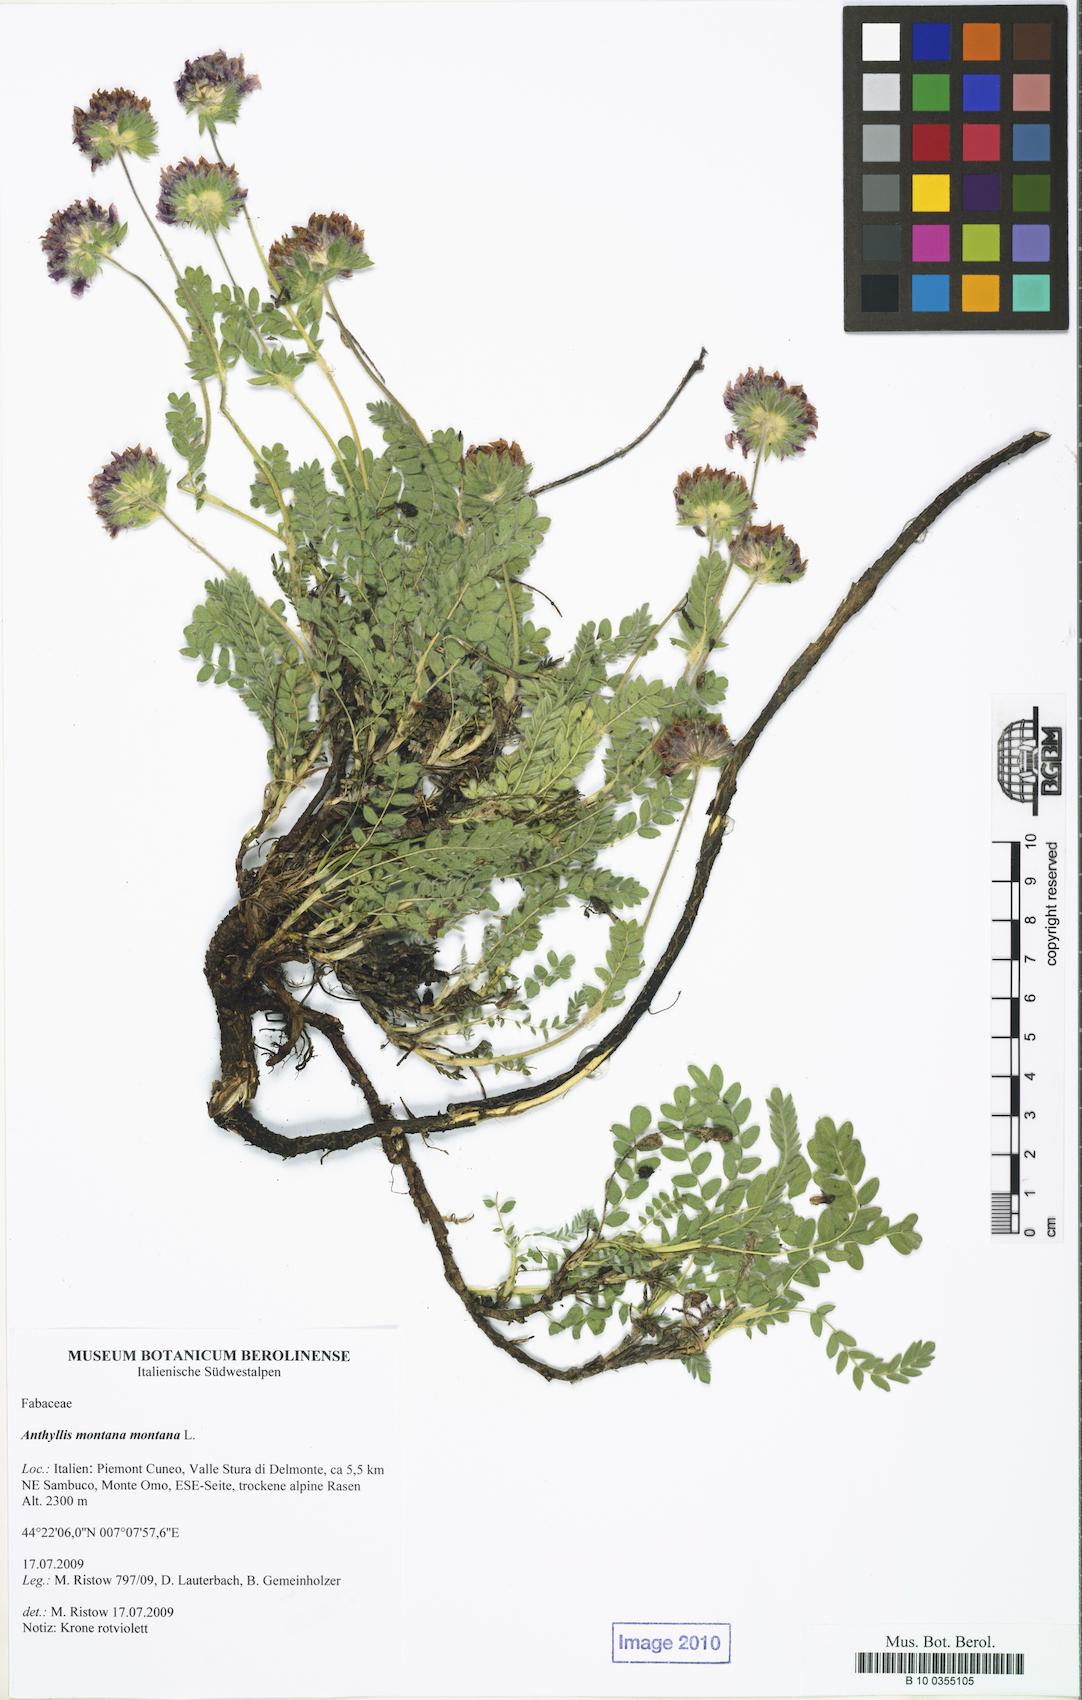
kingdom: Plantae
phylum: Tracheophyta
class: Magnoliopsida
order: Fabales
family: Fabaceae
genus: Anthyllis
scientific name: Anthyllis montana
